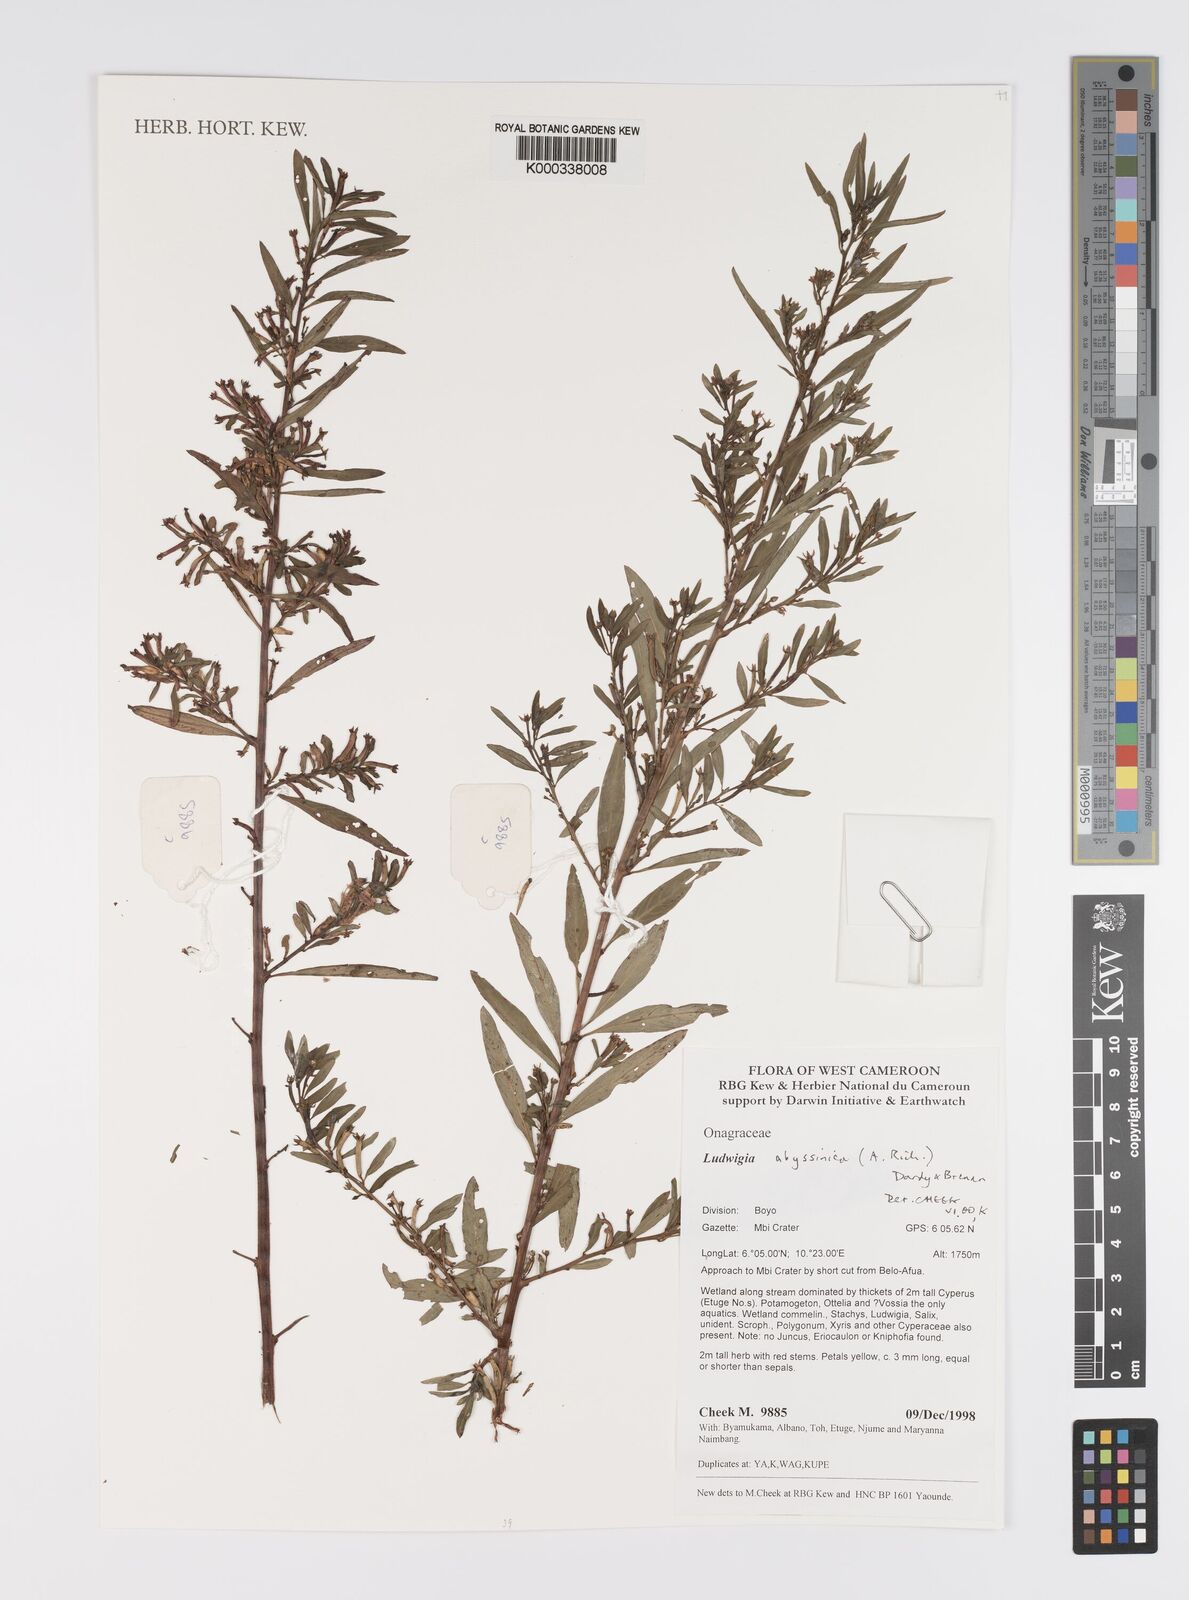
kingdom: Plantae
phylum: Tracheophyta
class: Magnoliopsida
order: Myrtales
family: Onagraceae
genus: Ludwigia
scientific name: Ludwigia abyssinica
